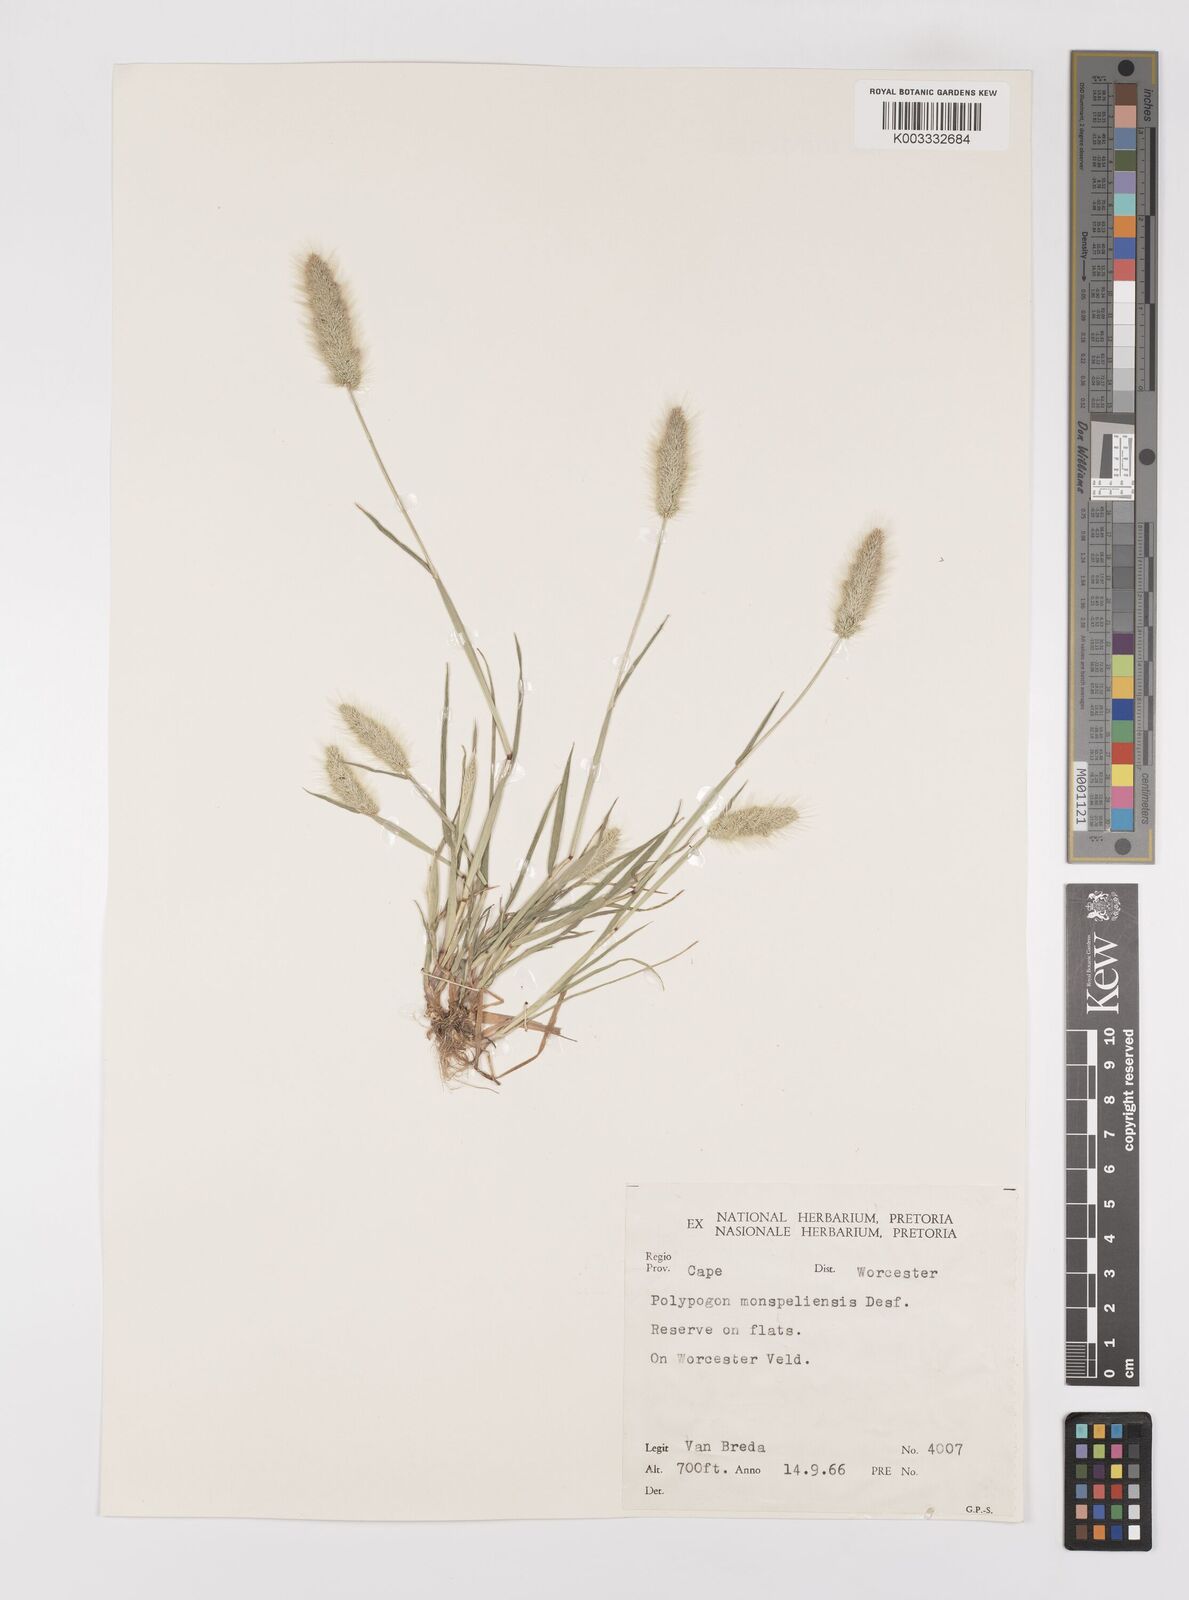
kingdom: Plantae
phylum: Tracheophyta
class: Liliopsida
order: Poales
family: Poaceae
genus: Polypogon
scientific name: Polypogon monspeliensis
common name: Annual rabbitsfoot grass
